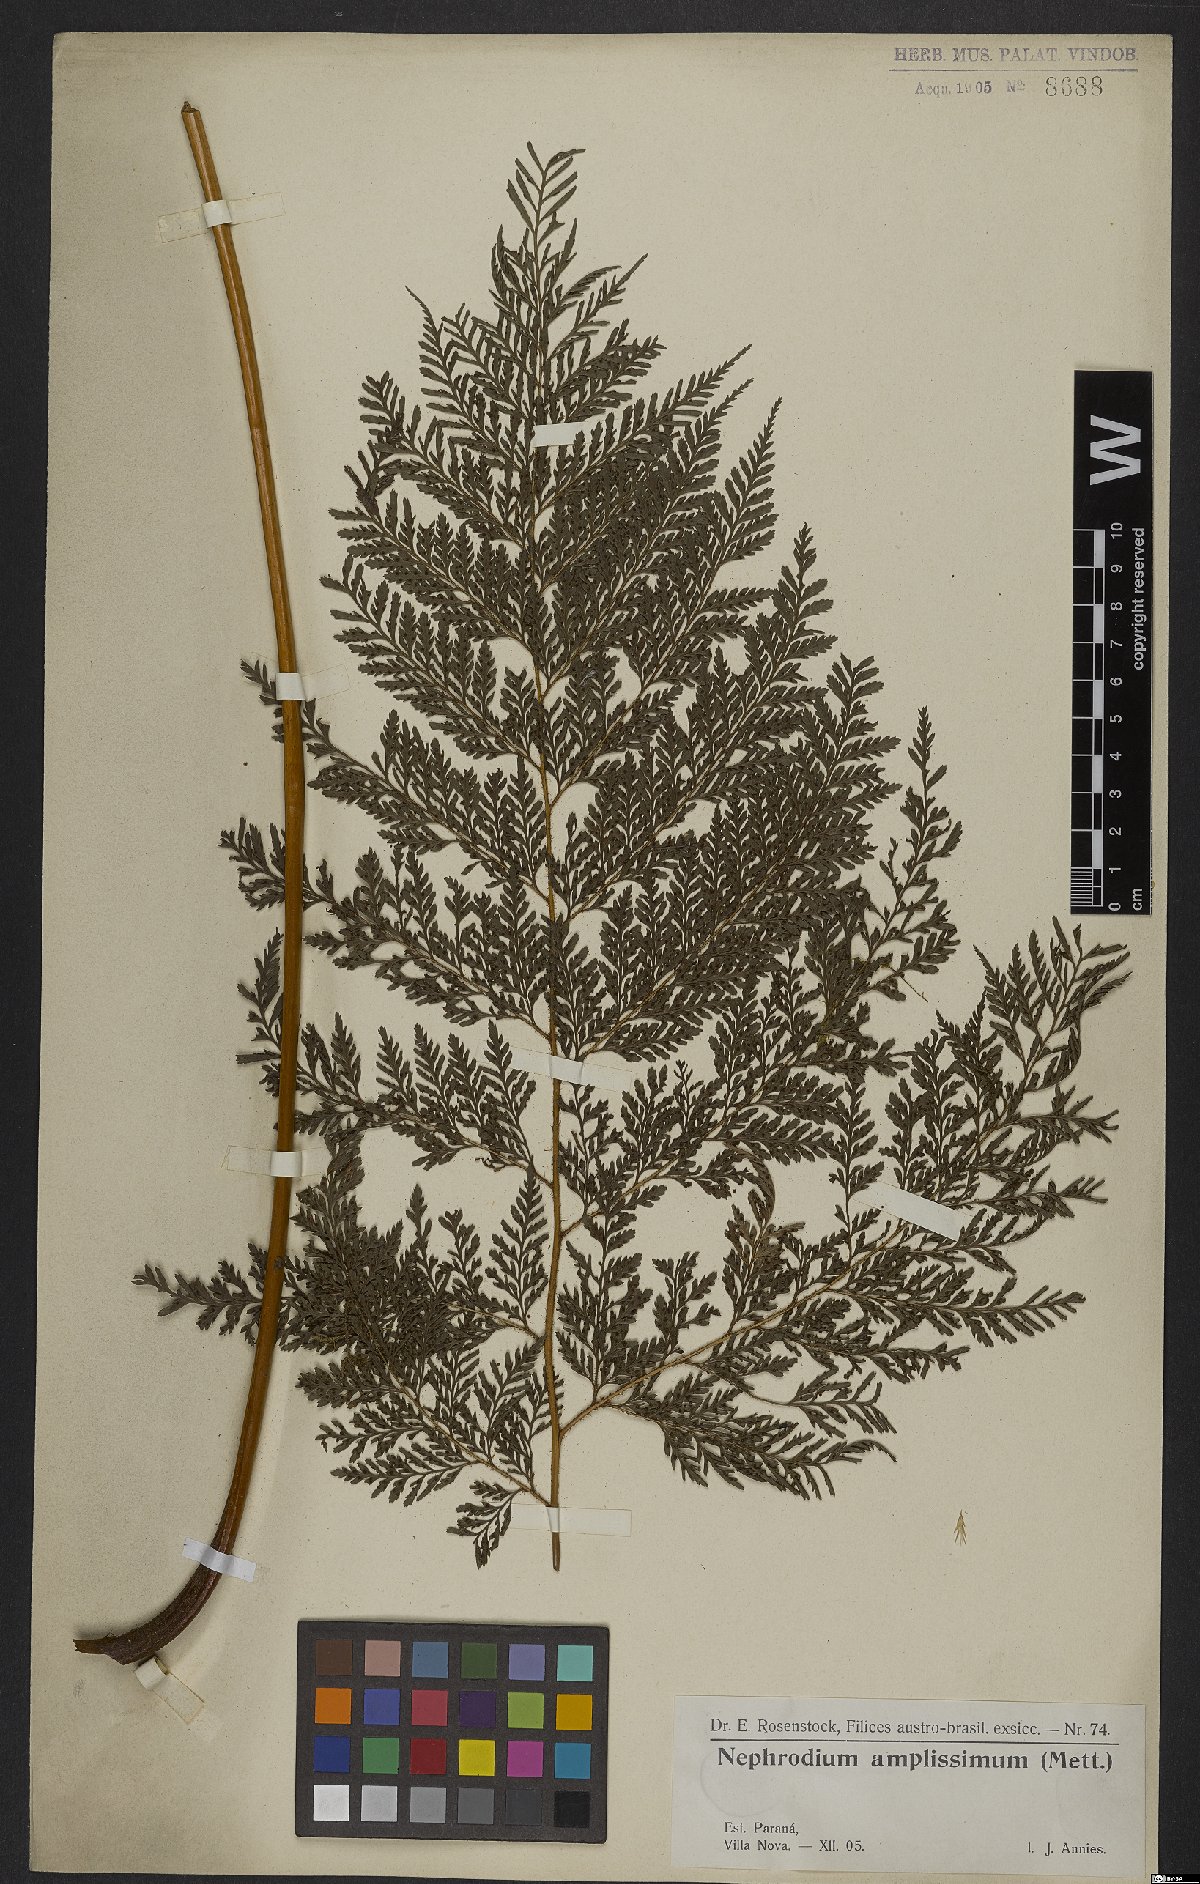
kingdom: Plantae
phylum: Tracheophyta
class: Polypodiopsida
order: Polypodiales
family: Dryopteridaceae
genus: Lastreopsis
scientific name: Lastreopsis amplissima
